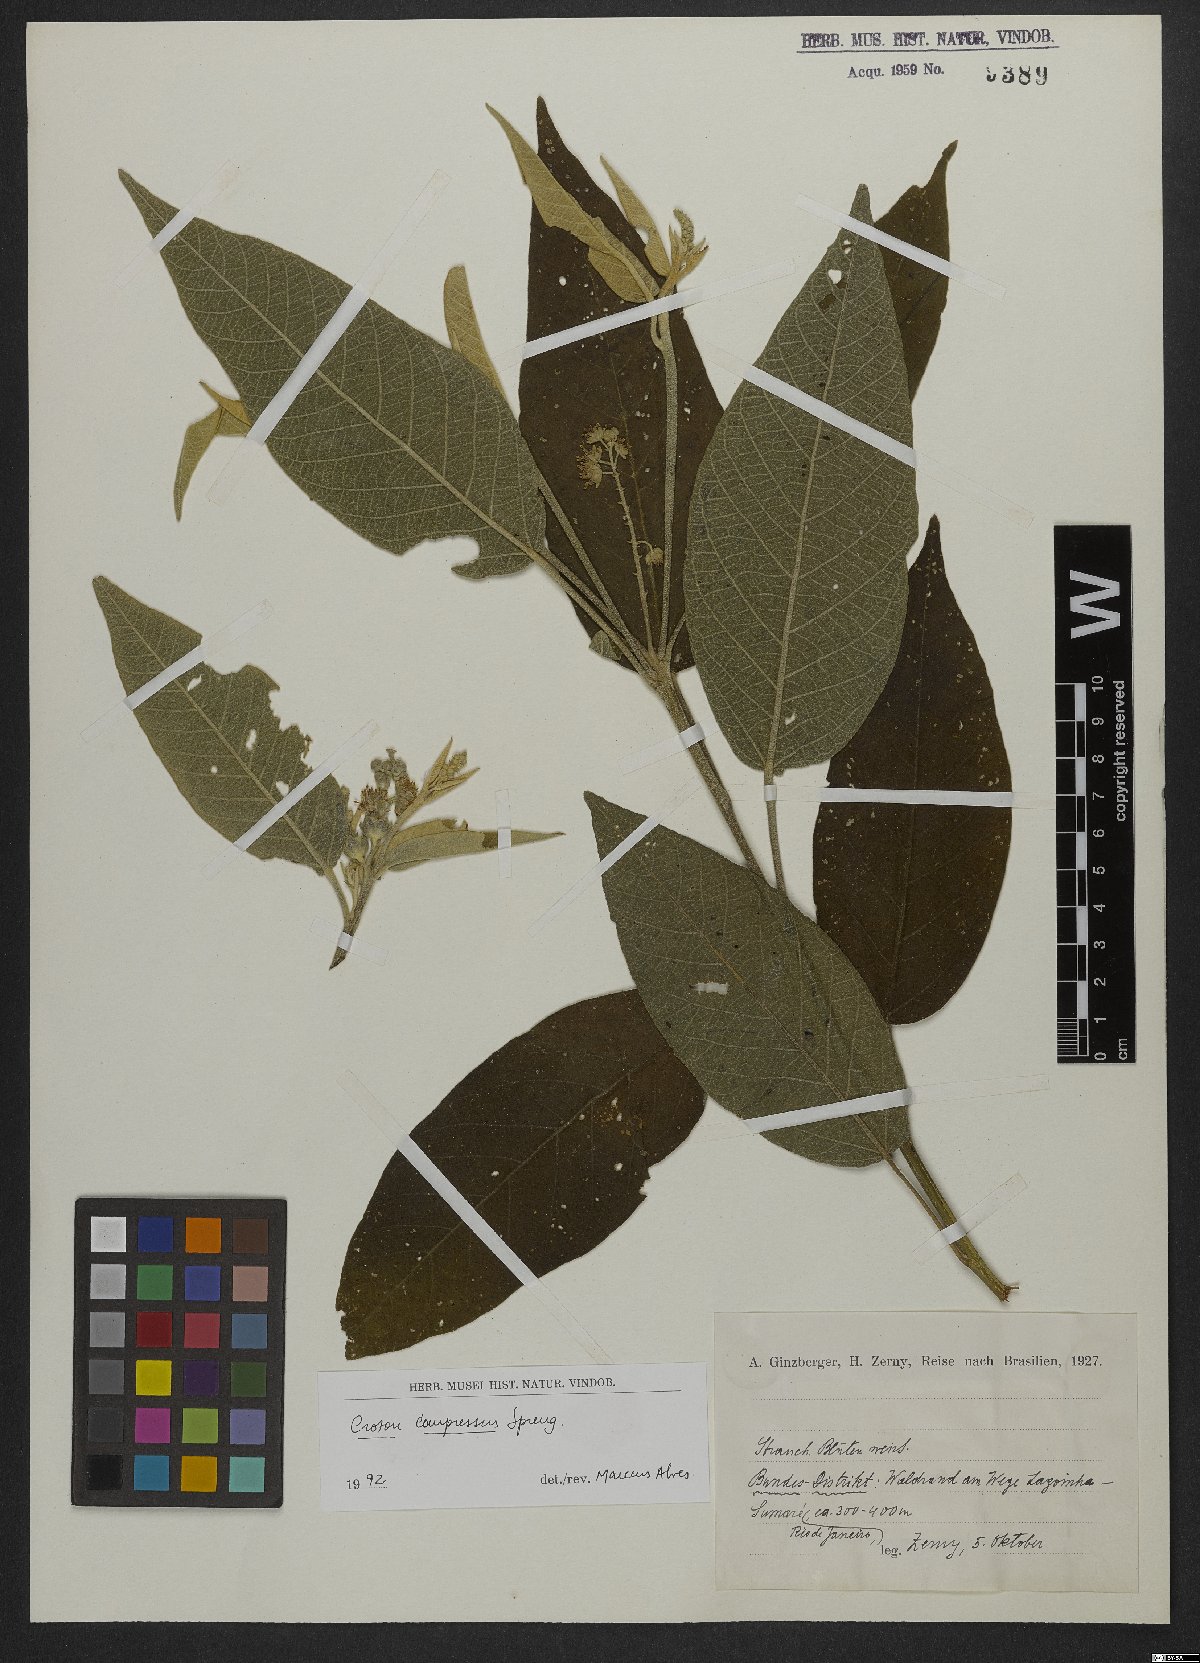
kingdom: Plantae
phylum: Tracheophyta
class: Magnoliopsida
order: Malpighiales
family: Euphorbiaceae
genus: Croton
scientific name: Croton compressus
